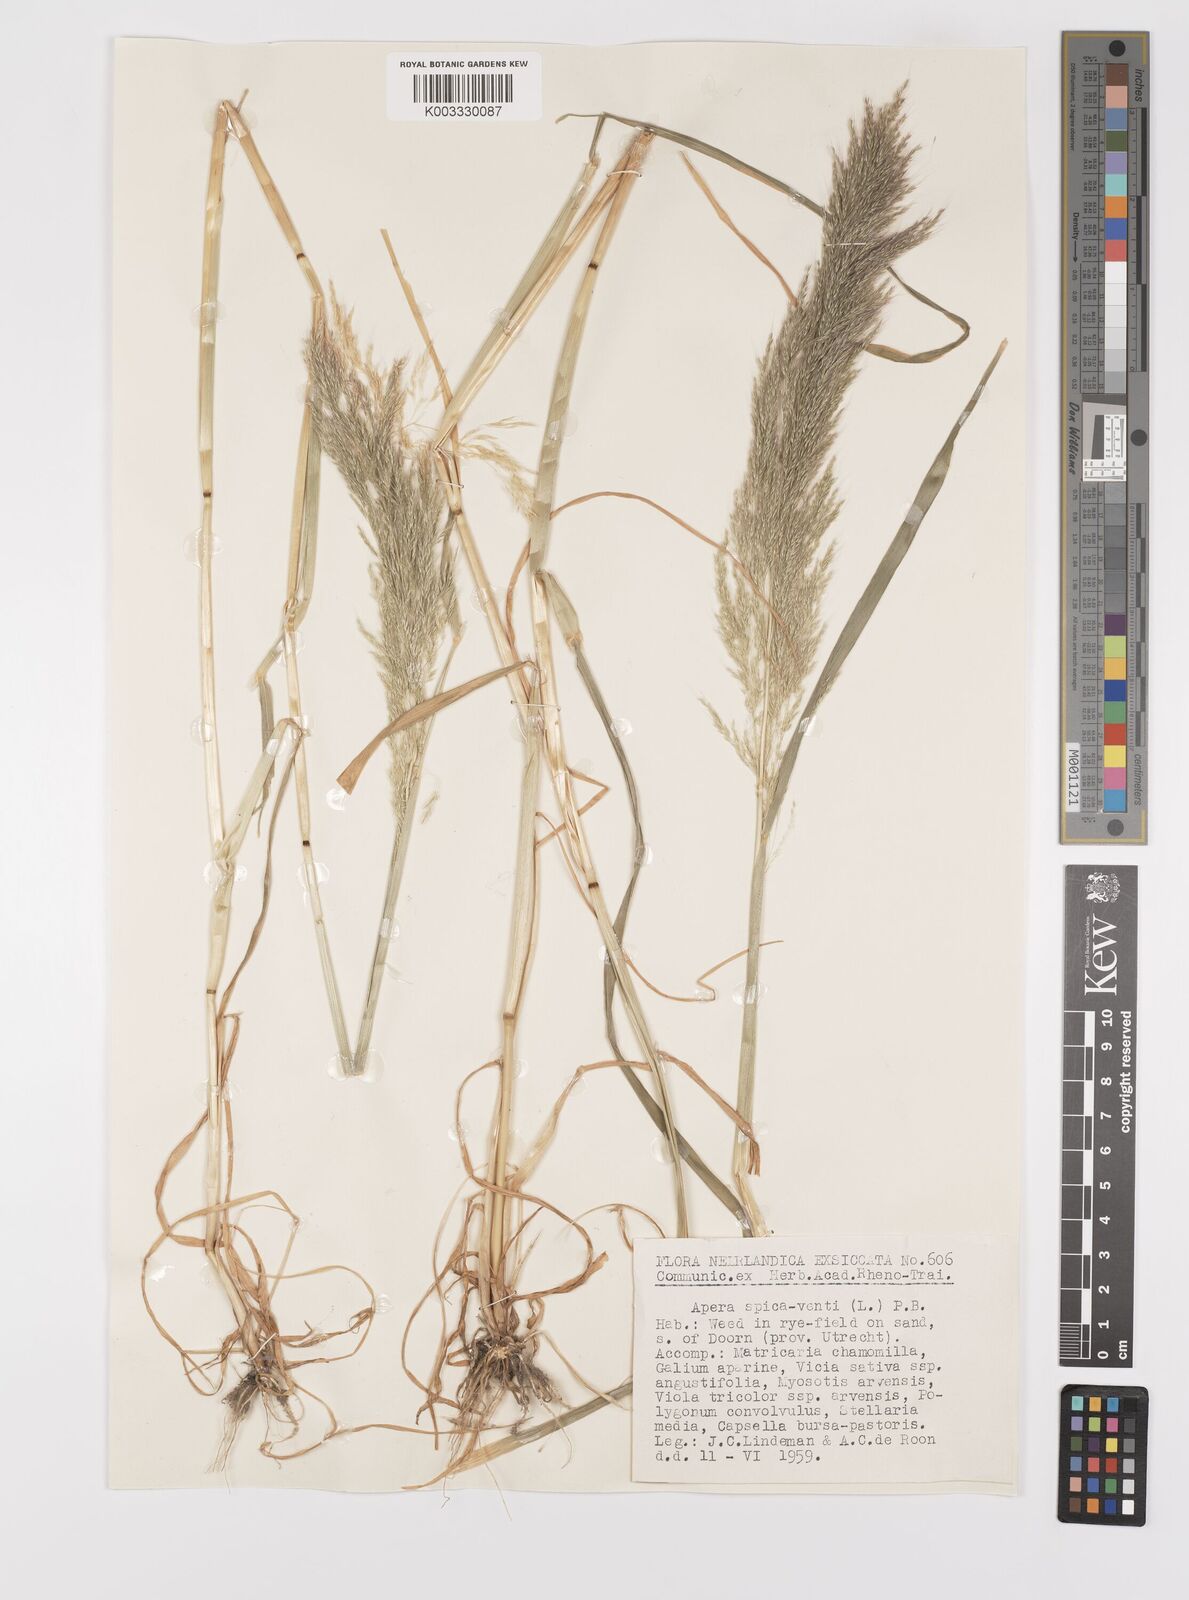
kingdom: Plantae
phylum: Tracheophyta
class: Liliopsida
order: Poales
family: Poaceae
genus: Apera
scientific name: Apera spica-venti
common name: Loose silky-bent
